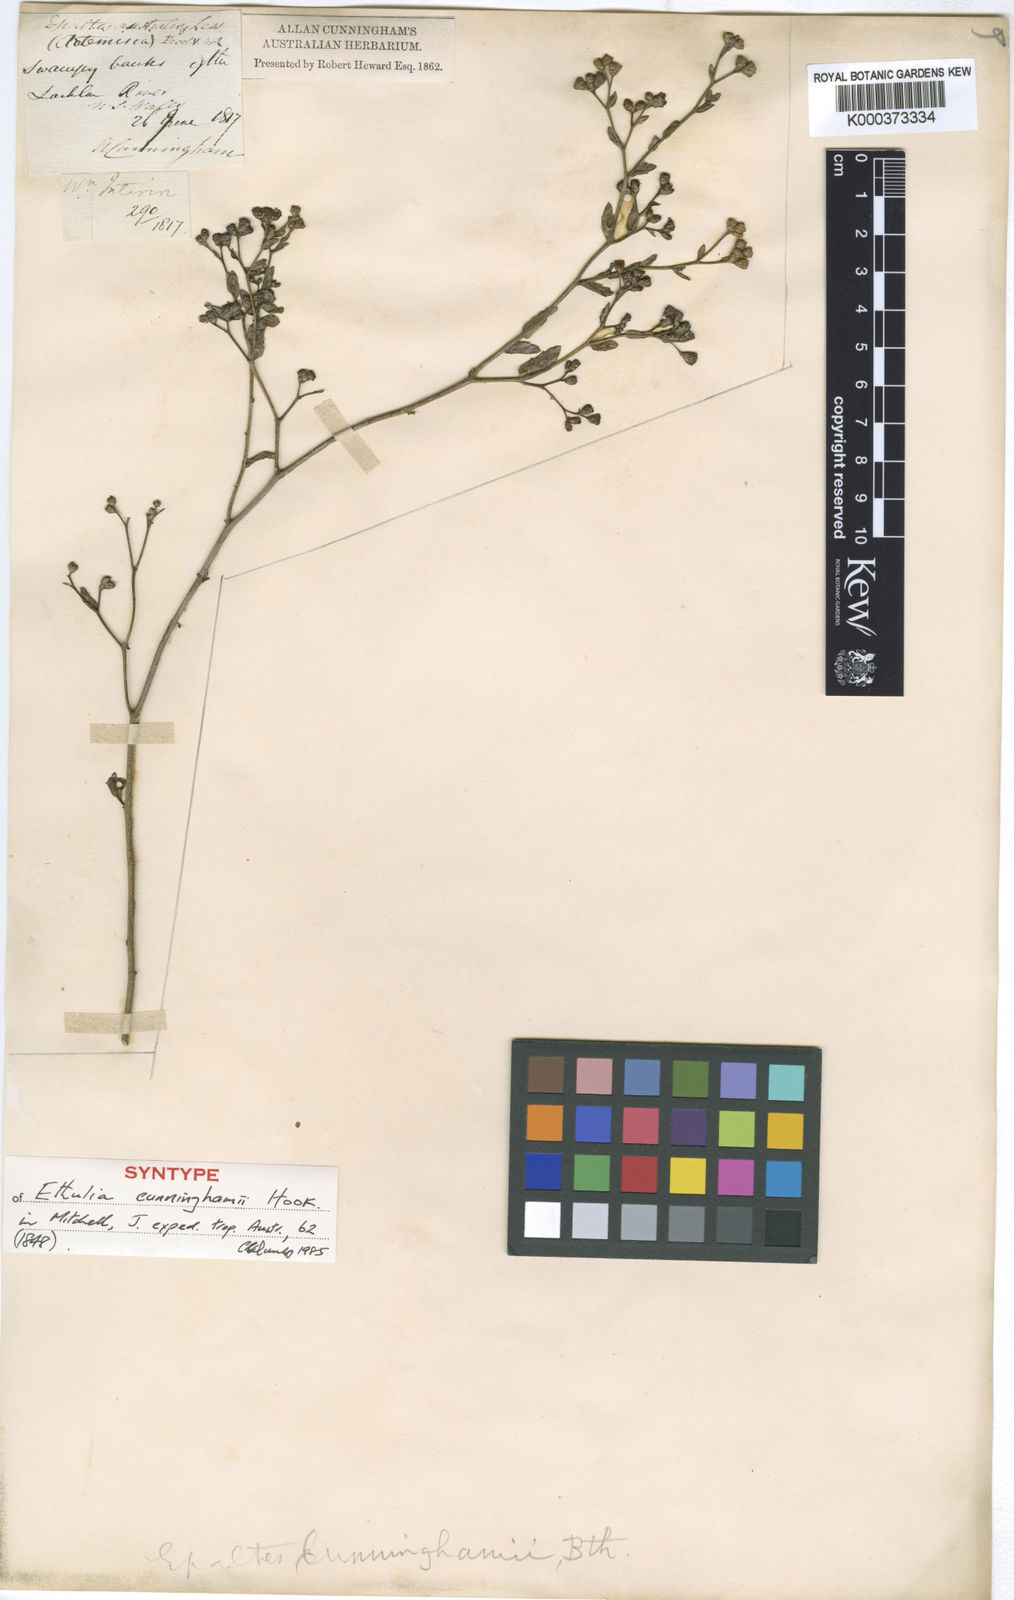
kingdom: Plantae
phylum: Tracheophyta
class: Magnoliopsida
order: Asterales
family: Asteraceae
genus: Epaltes
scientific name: Epaltes cunninghamii
